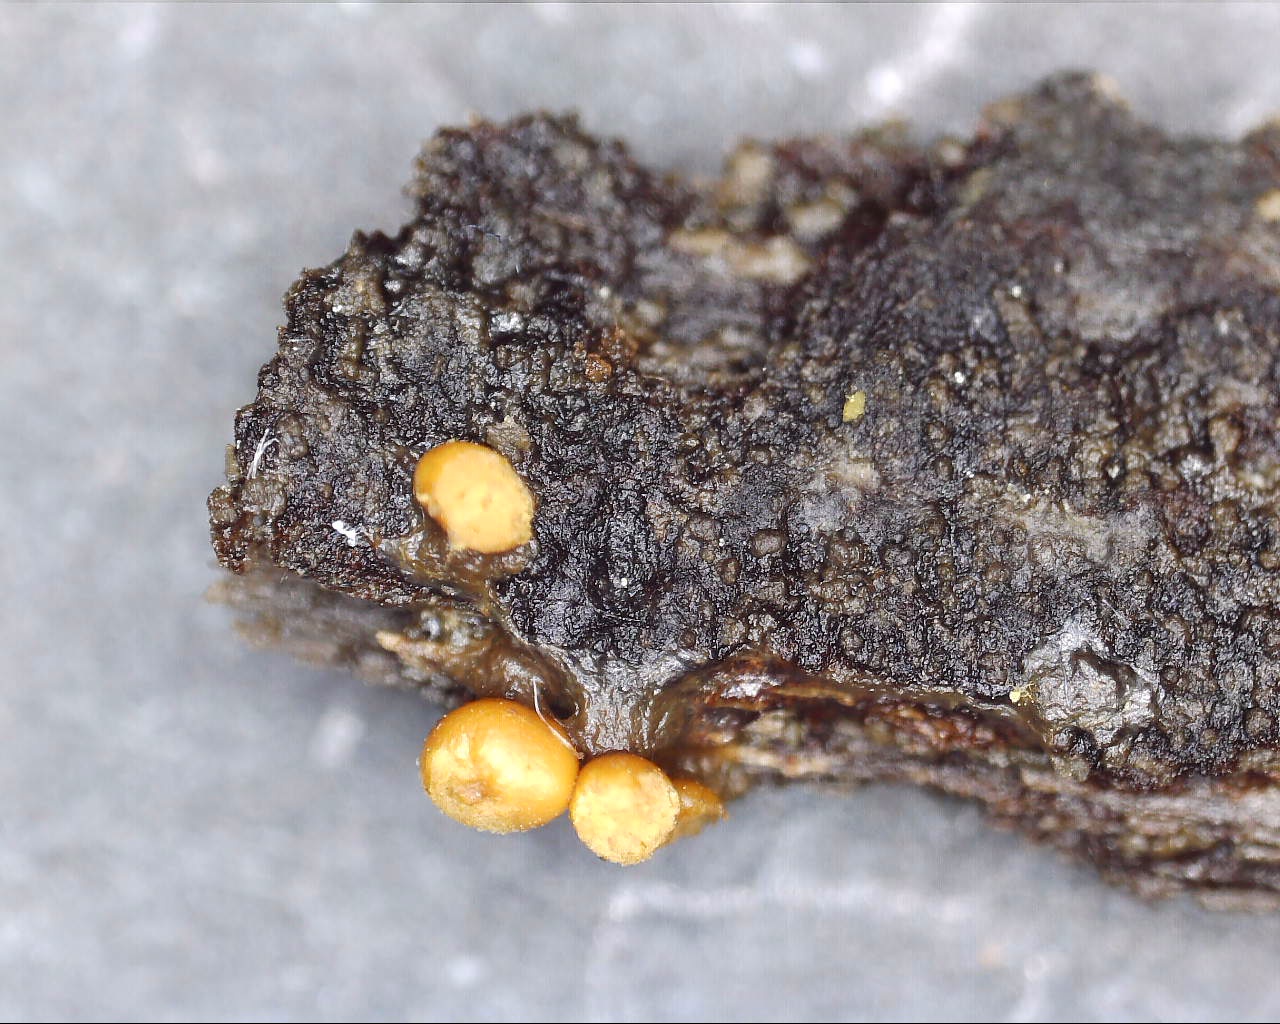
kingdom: Protozoa
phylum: Mycetozoa
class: Myxomycetes
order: Trichiales
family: Trichiaceae
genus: Trichia
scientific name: Trichia varia
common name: foranderlig hårbold
